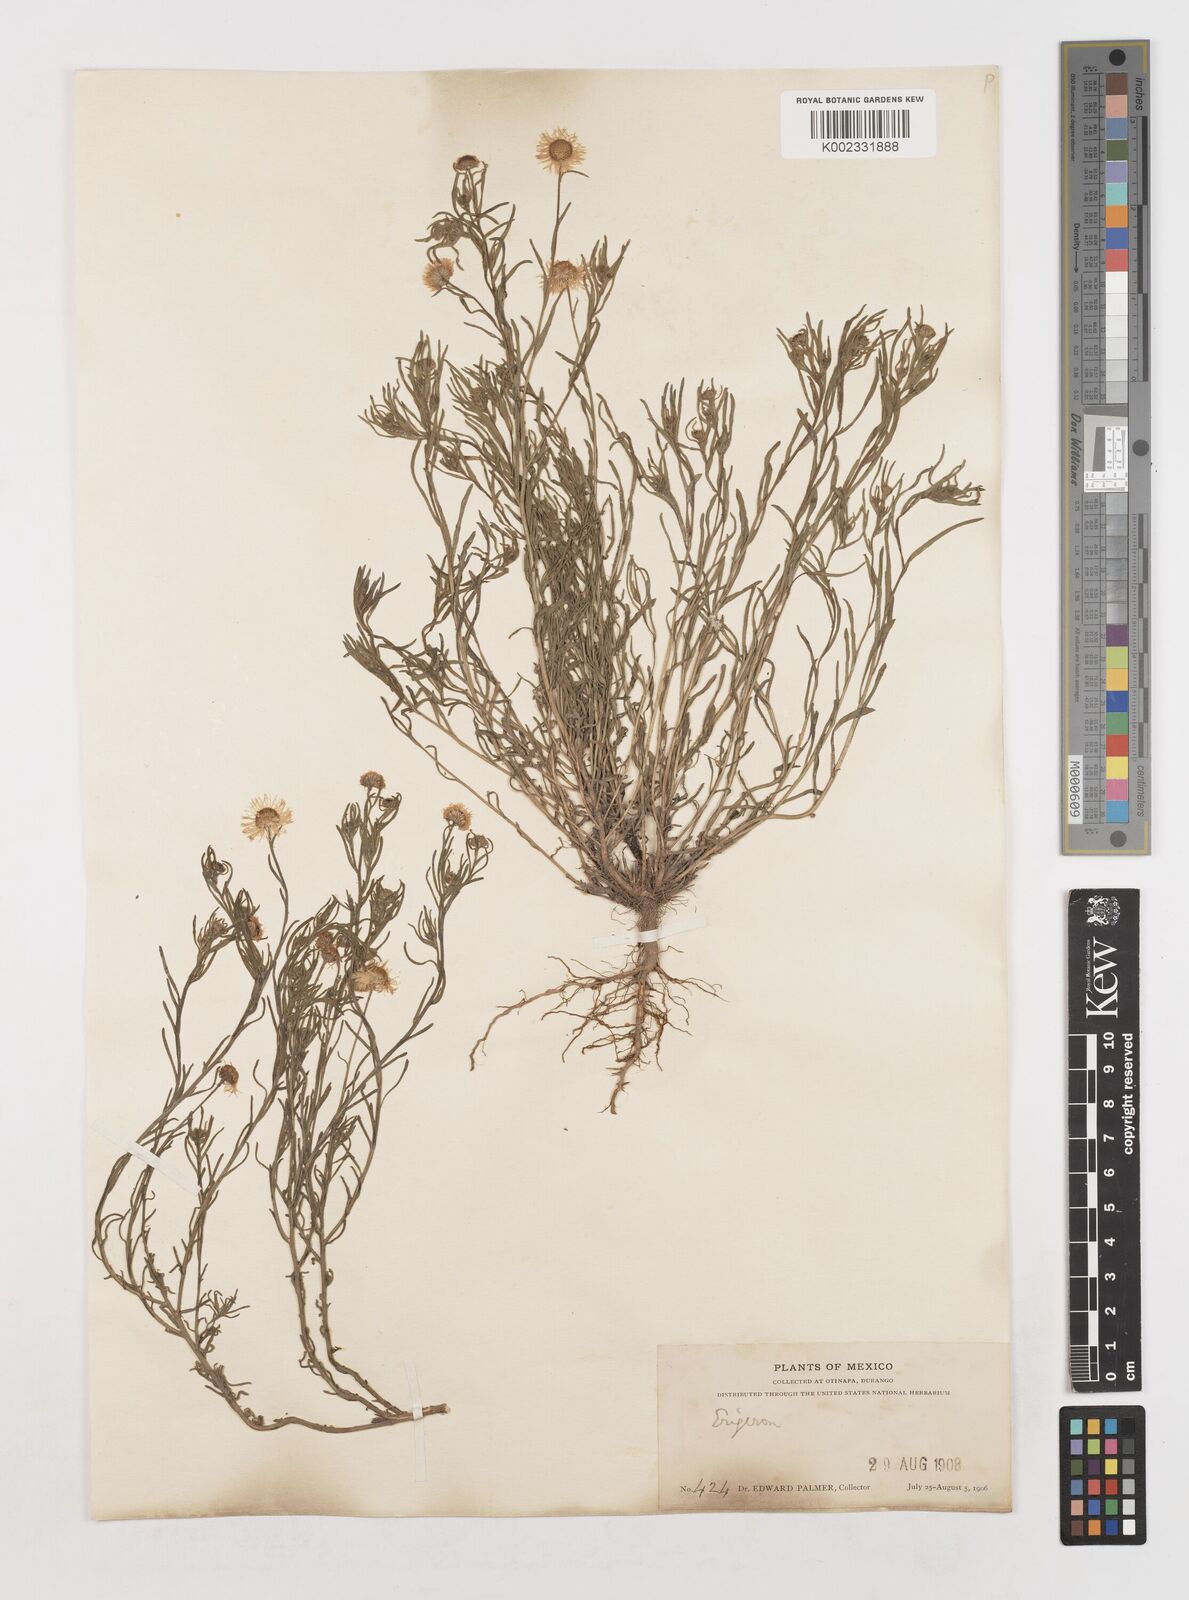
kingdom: Plantae
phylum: Tracheophyta
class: Magnoliopsida
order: Asterales
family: Asteraceae
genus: Erigeron
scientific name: Erigeron
